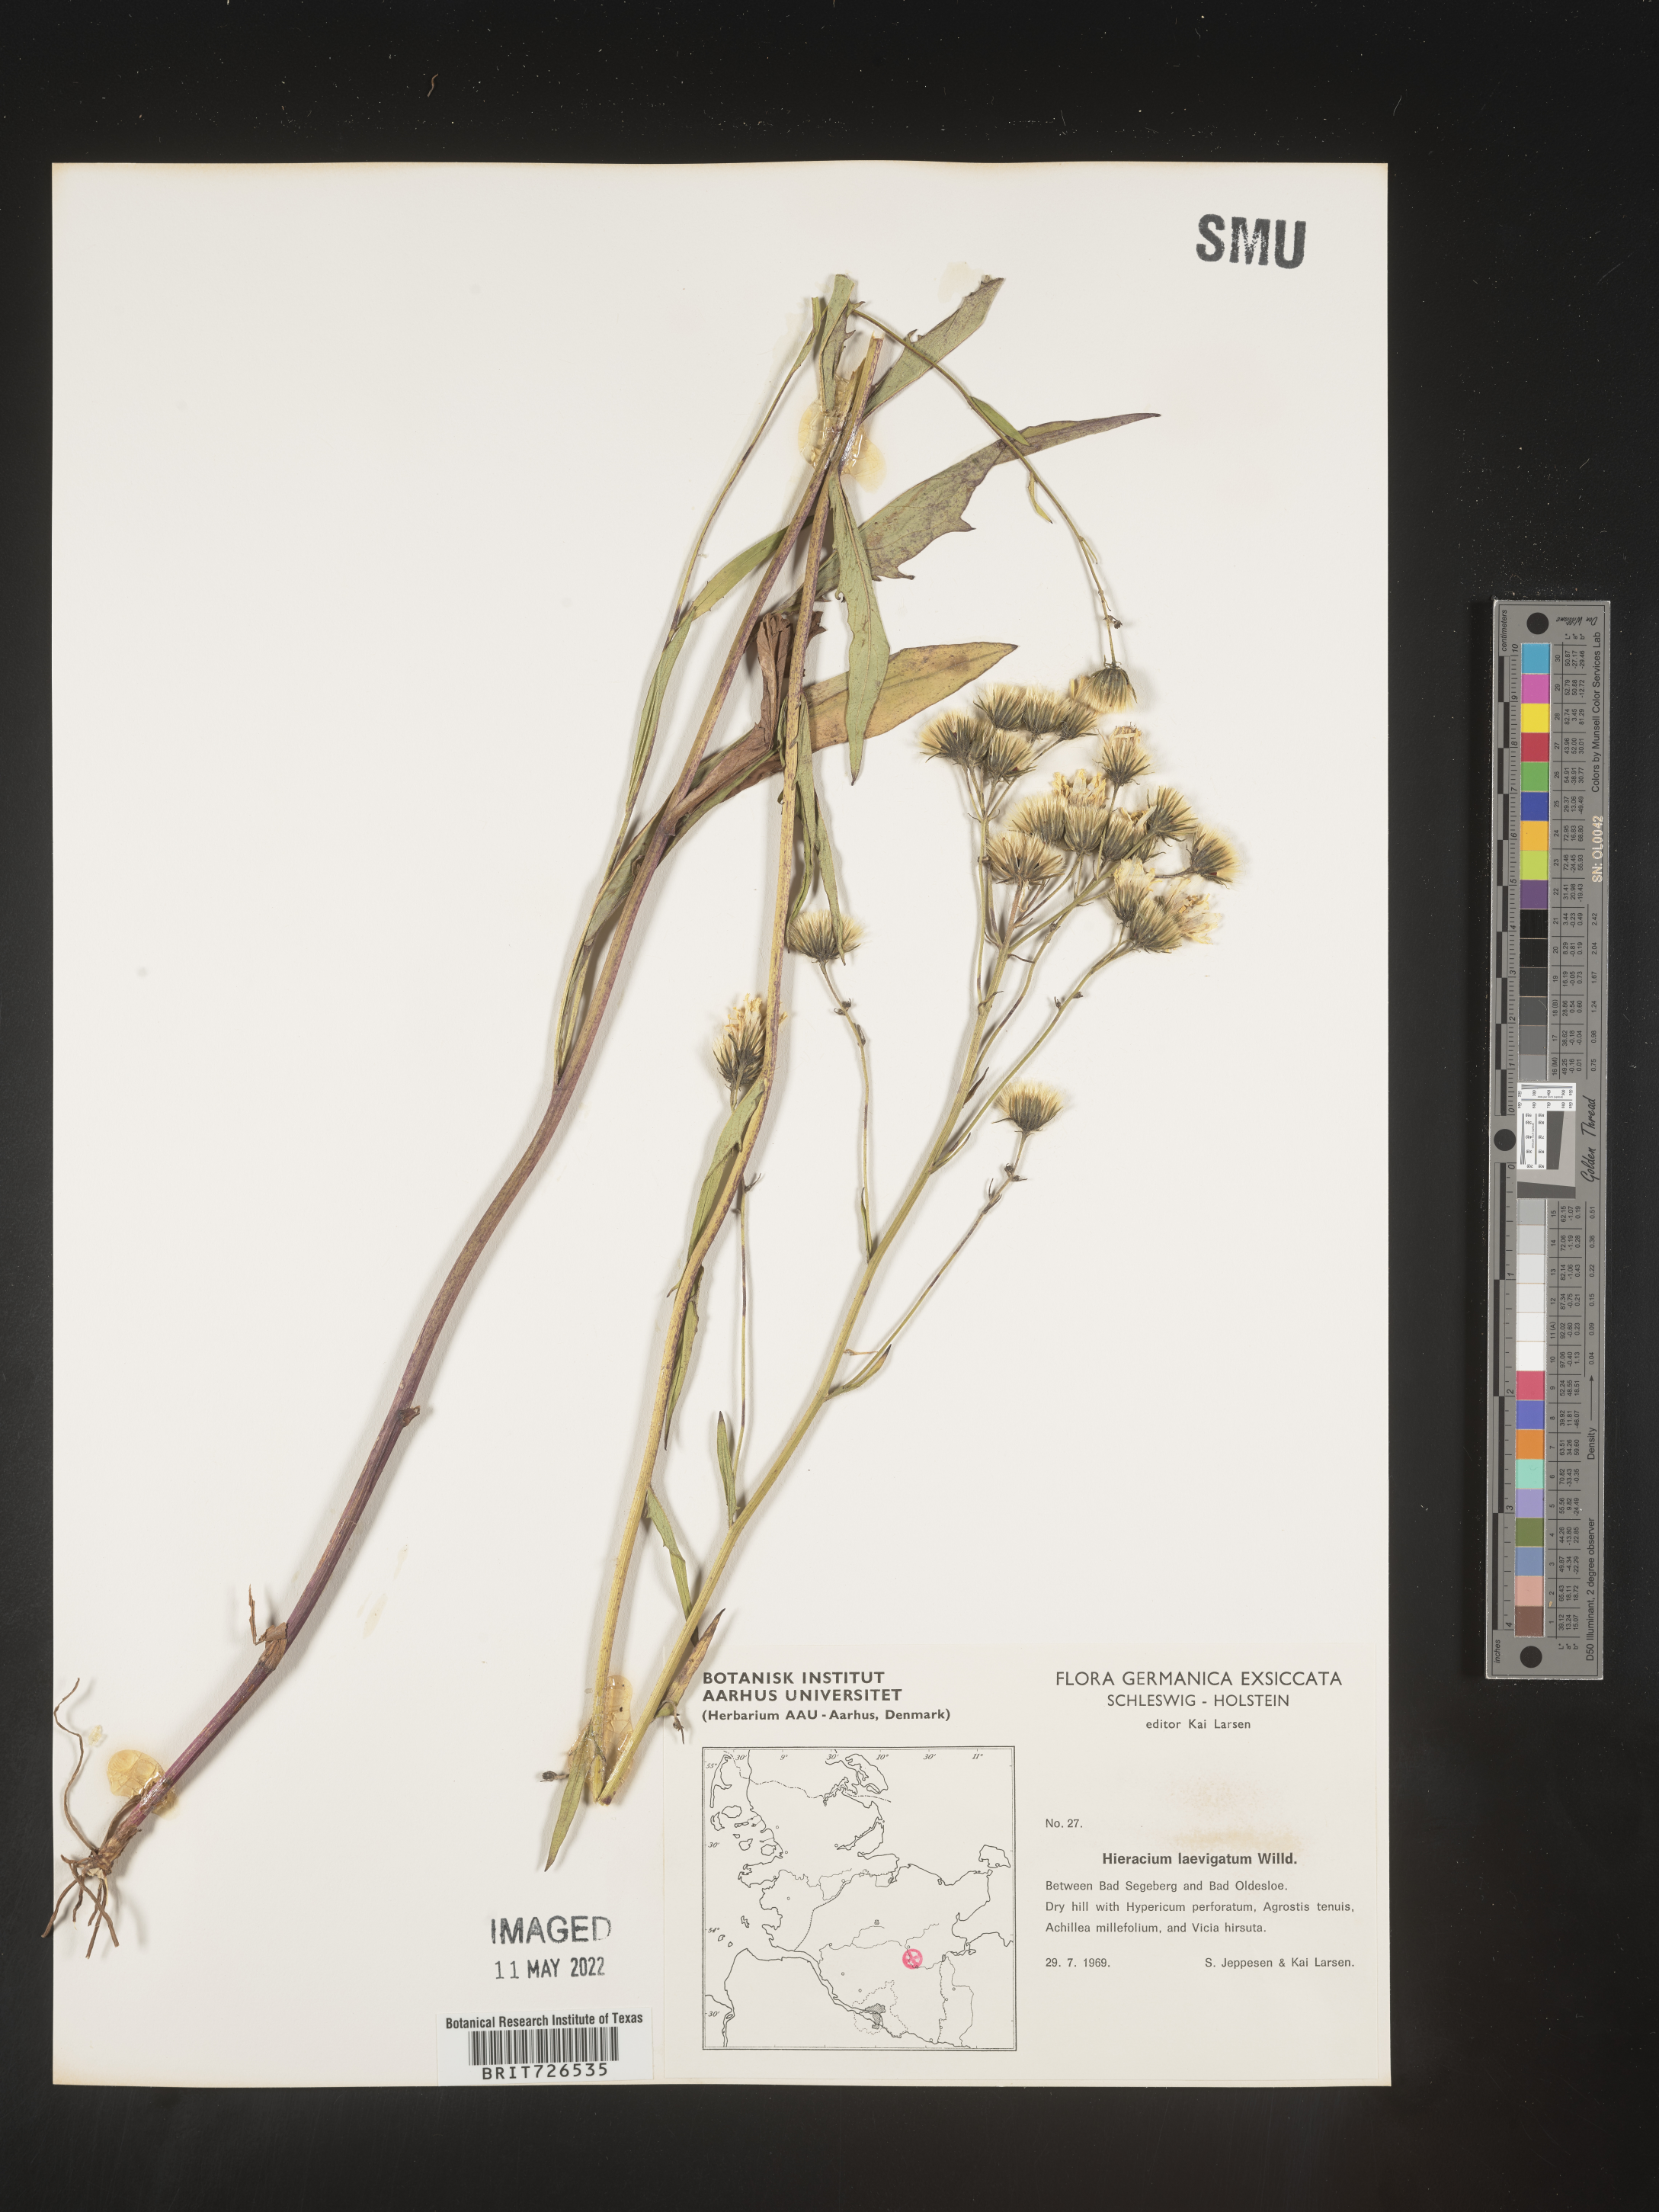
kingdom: Plantae
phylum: Tracheophyta
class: Magnoliopsida
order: Asterales
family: Asteraceae
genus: Hieracium
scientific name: Hieracium
